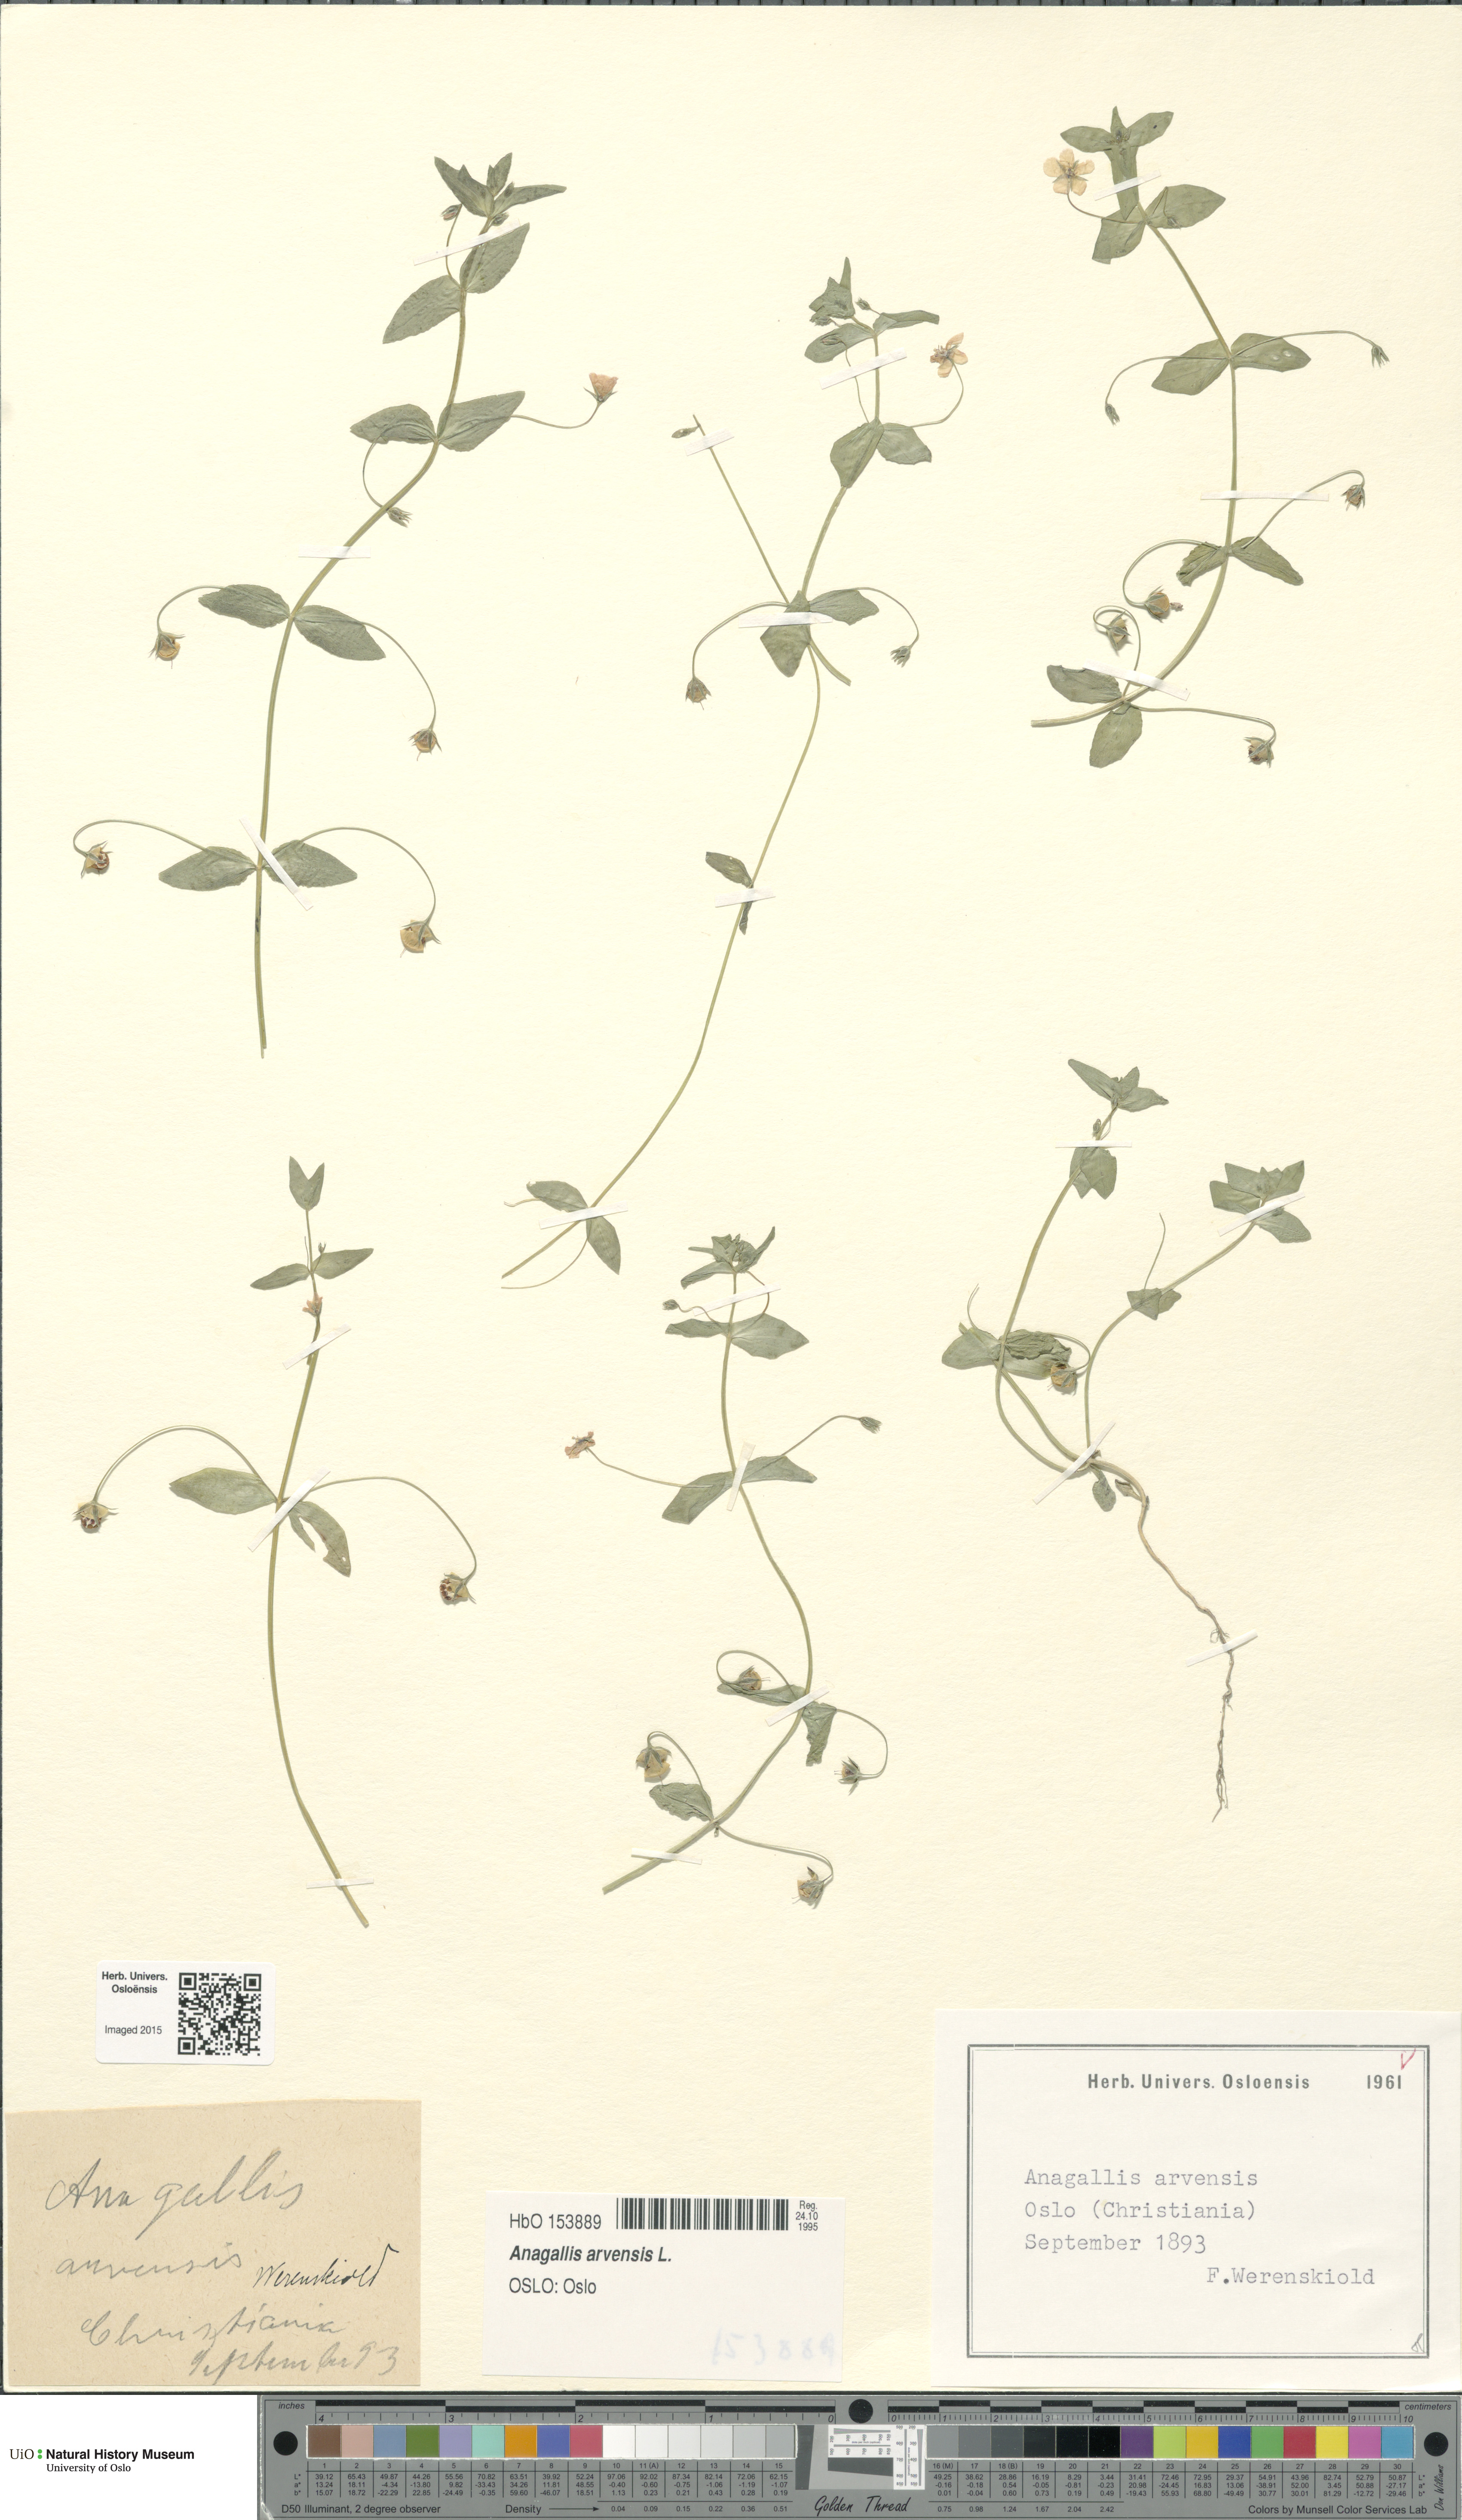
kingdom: Plantae
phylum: Tracheophyta
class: Magnoliopsida
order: Ericales
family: Primulaceae
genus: Lysimachia
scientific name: Lysimachia arvensis
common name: Scarlet pimpernel
